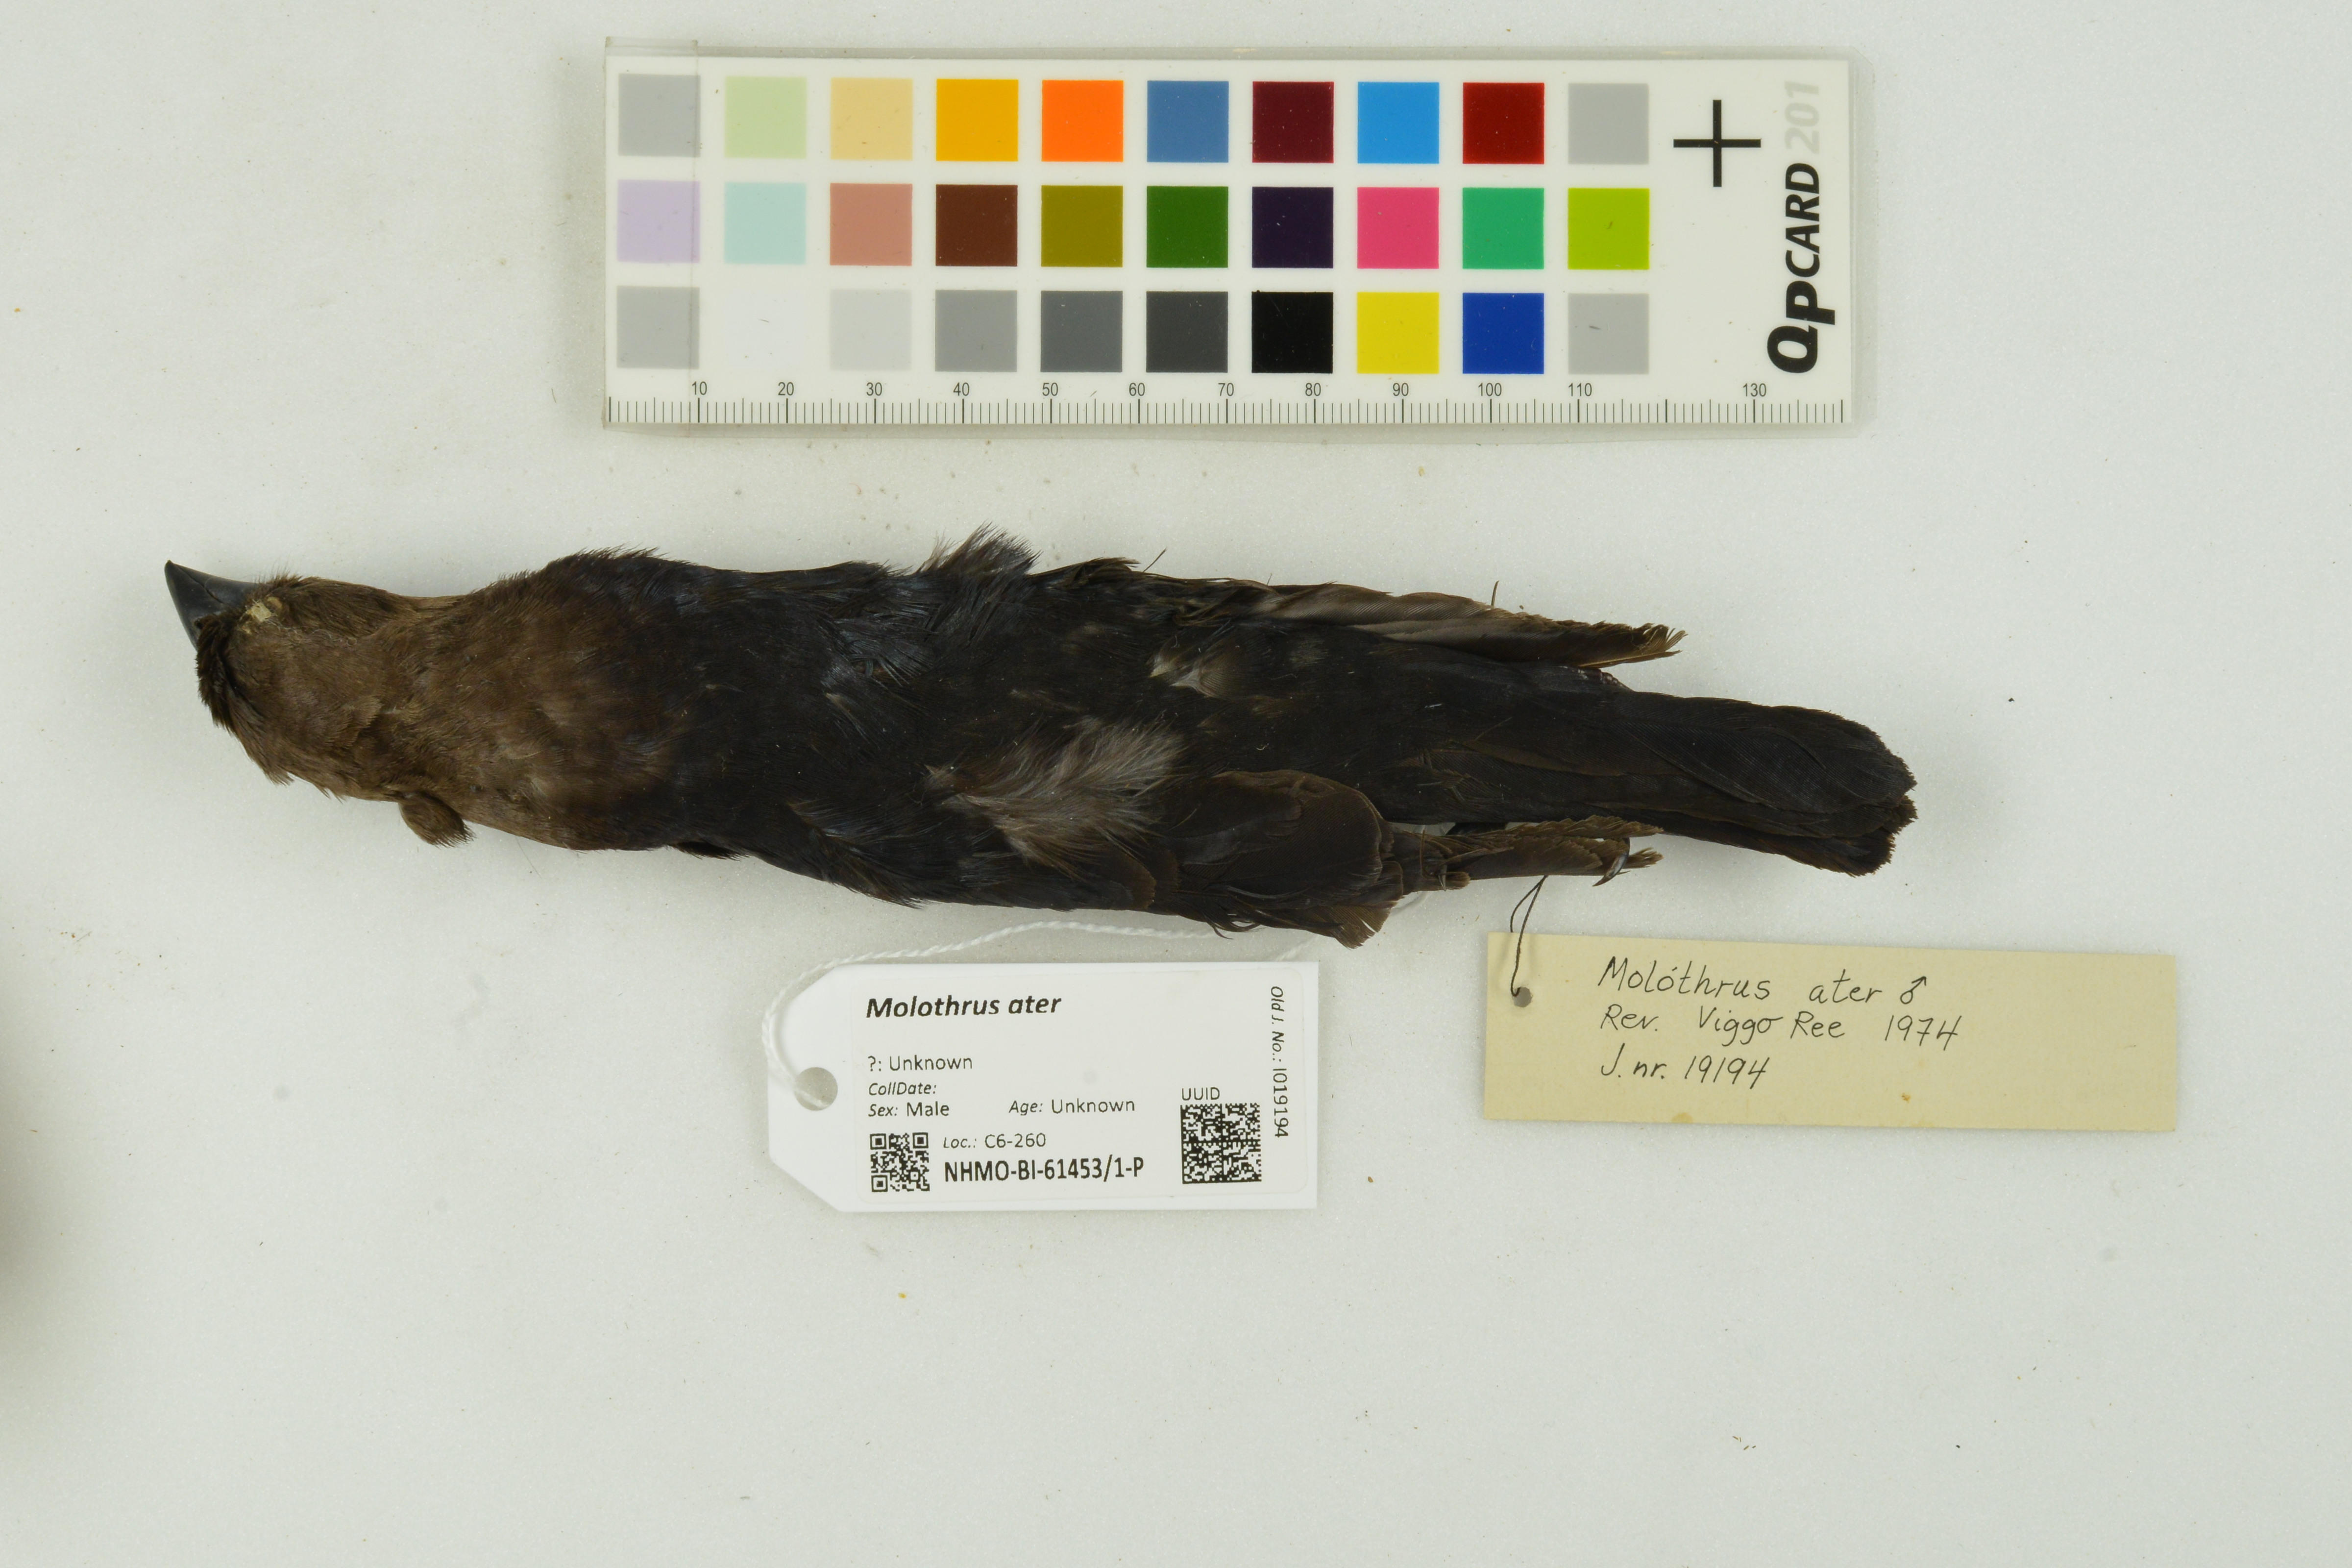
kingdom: Animalia
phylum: Chordata
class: Aves
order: Passeriformes
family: Icteridae
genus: Molothrus
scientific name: Molothrus ater
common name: Brown-headed cowbird
